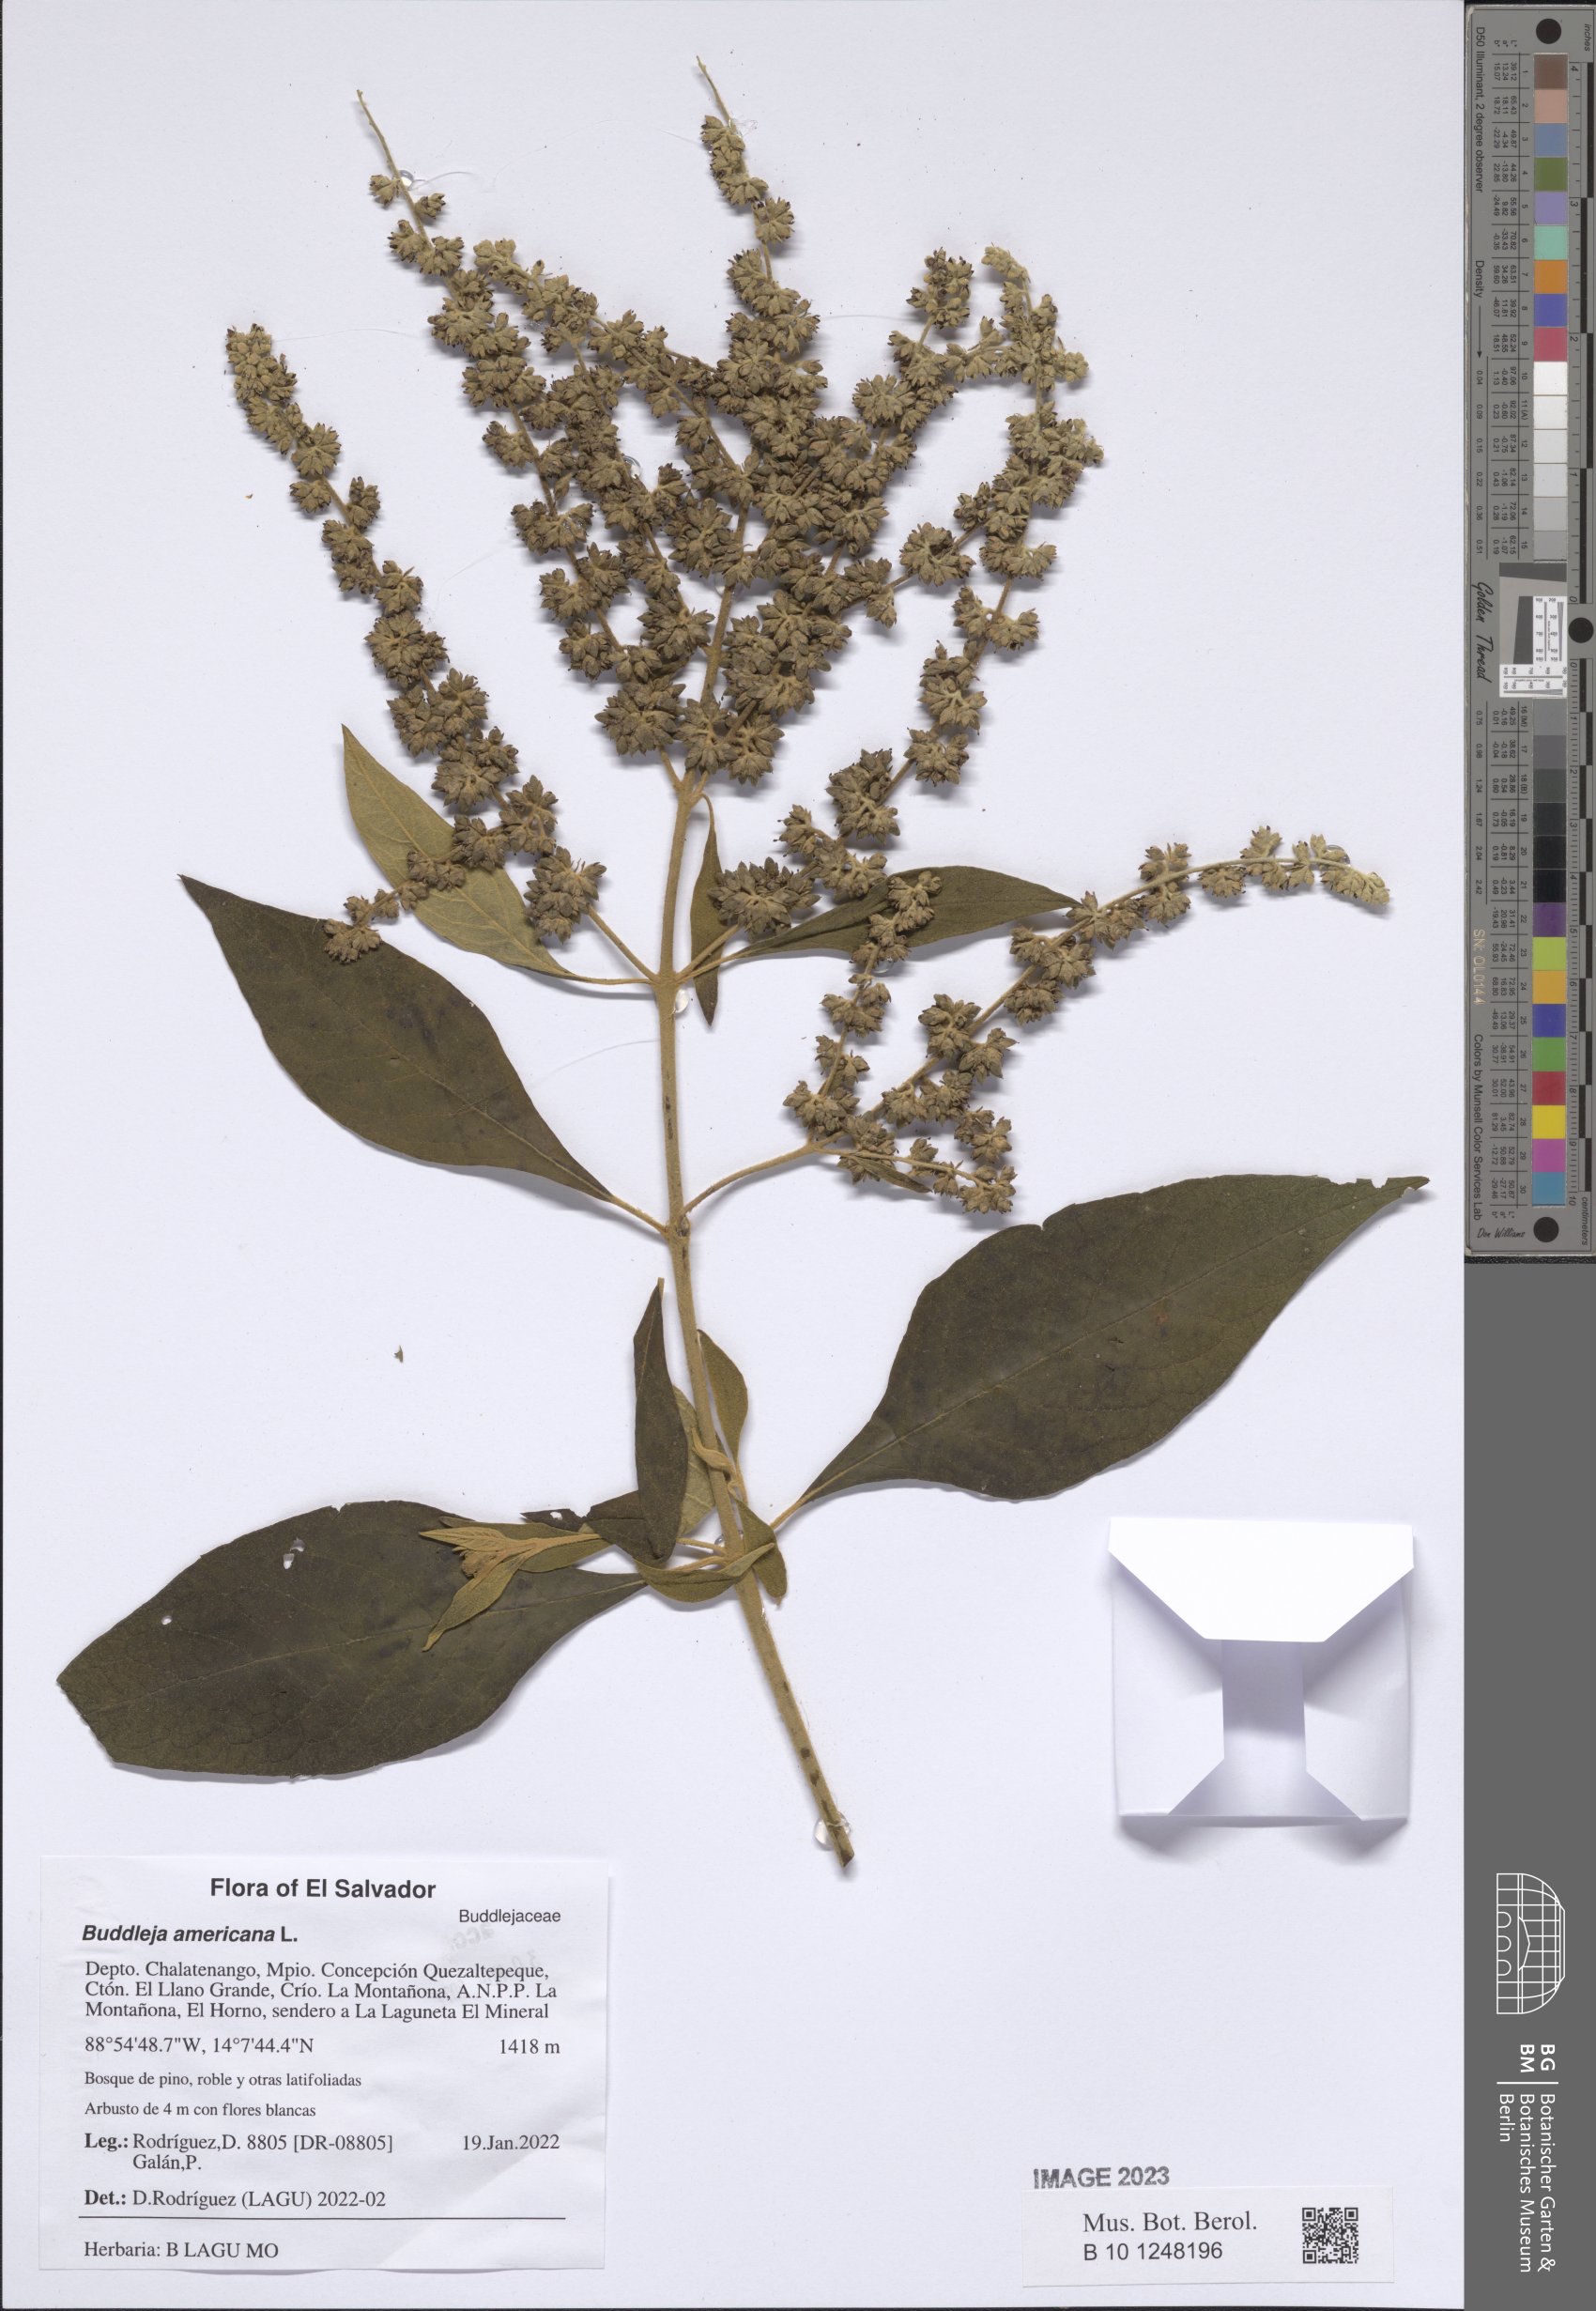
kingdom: Plantae
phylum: Tracheophyta
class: Magnoliopsida
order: Lamiales
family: Scrophulariaceae
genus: Buddleja
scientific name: Buddleja americana
